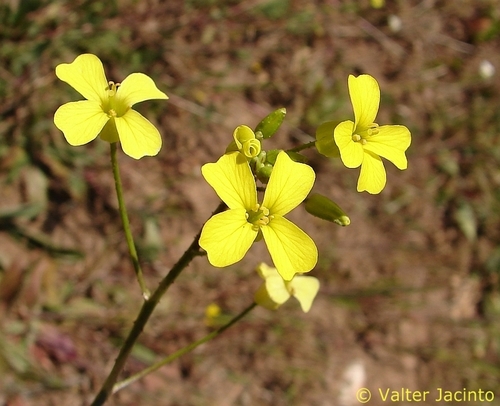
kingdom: Plantae
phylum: Tracheophyta
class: Magnoliopsida
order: Brassicales
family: Brassicaceae
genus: Brassica
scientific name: Brassica barrelieri
